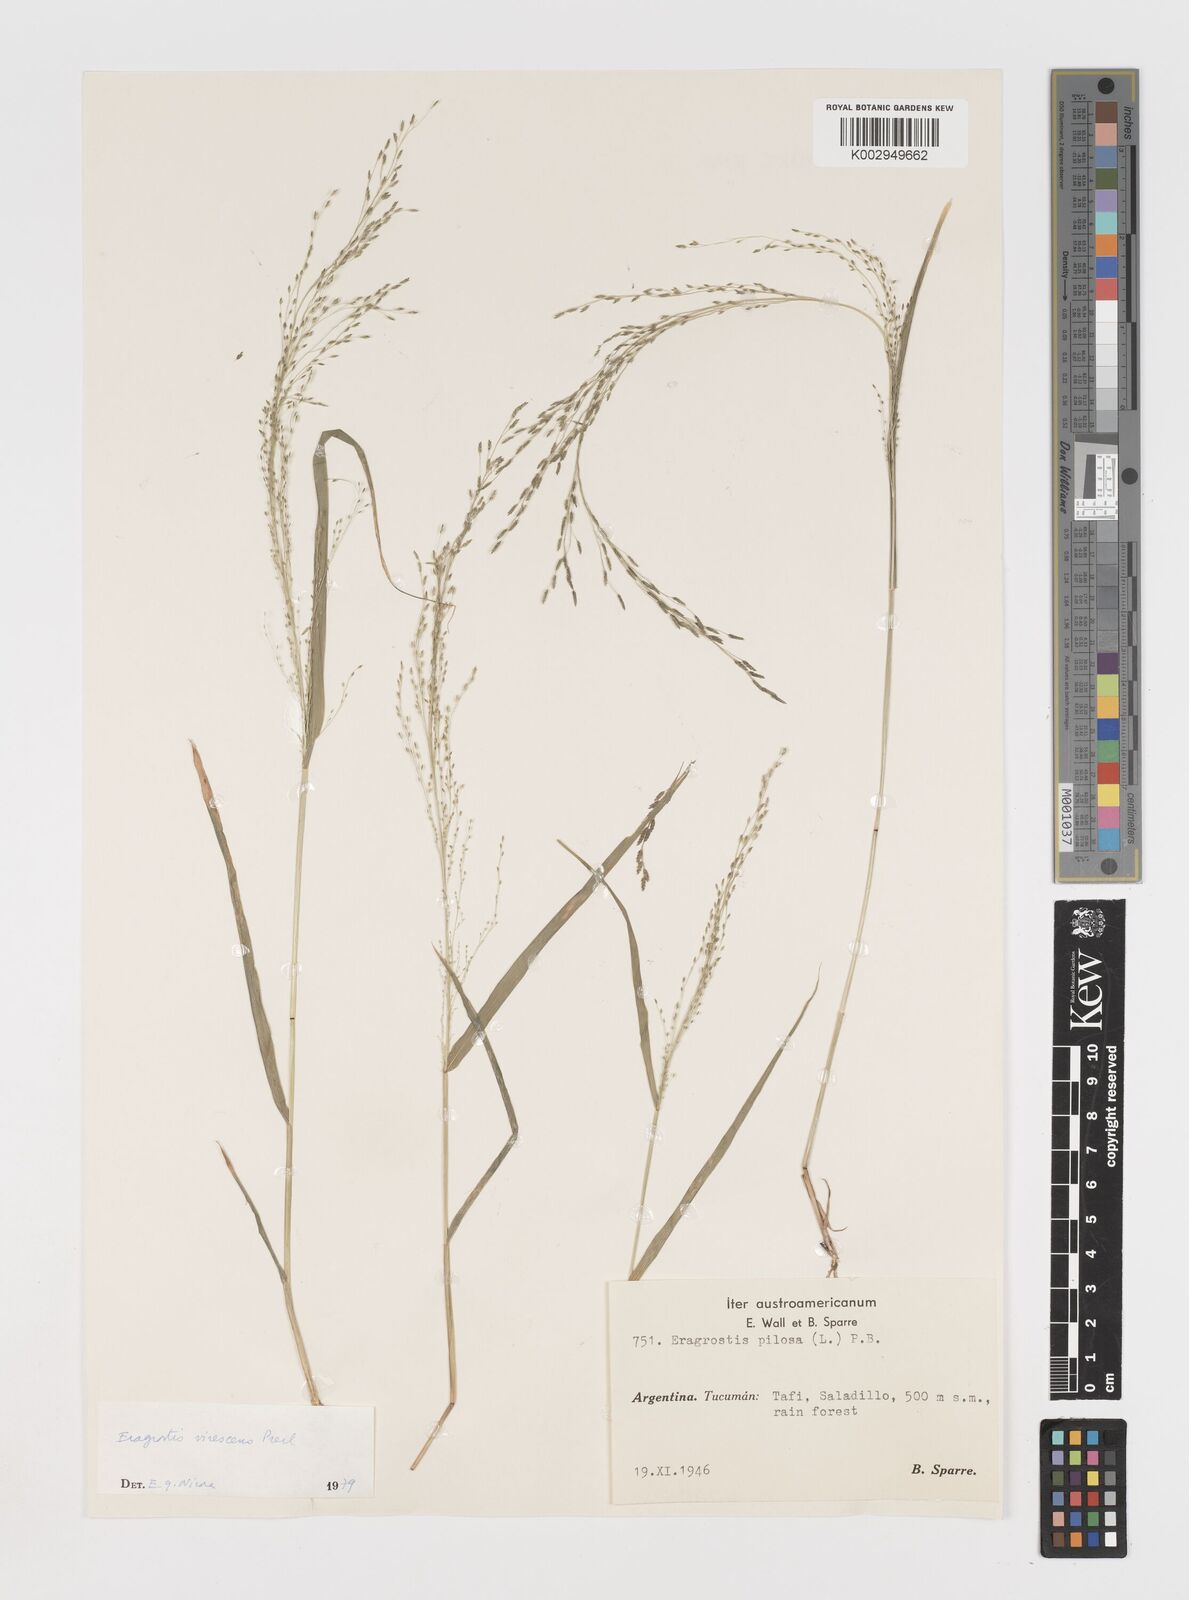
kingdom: Plantae
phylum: Tracheophyta
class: Liliopsida
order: Poales
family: Poaceae
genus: Eragrostis
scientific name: Eragrostis mexicana
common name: Mexican love grass
